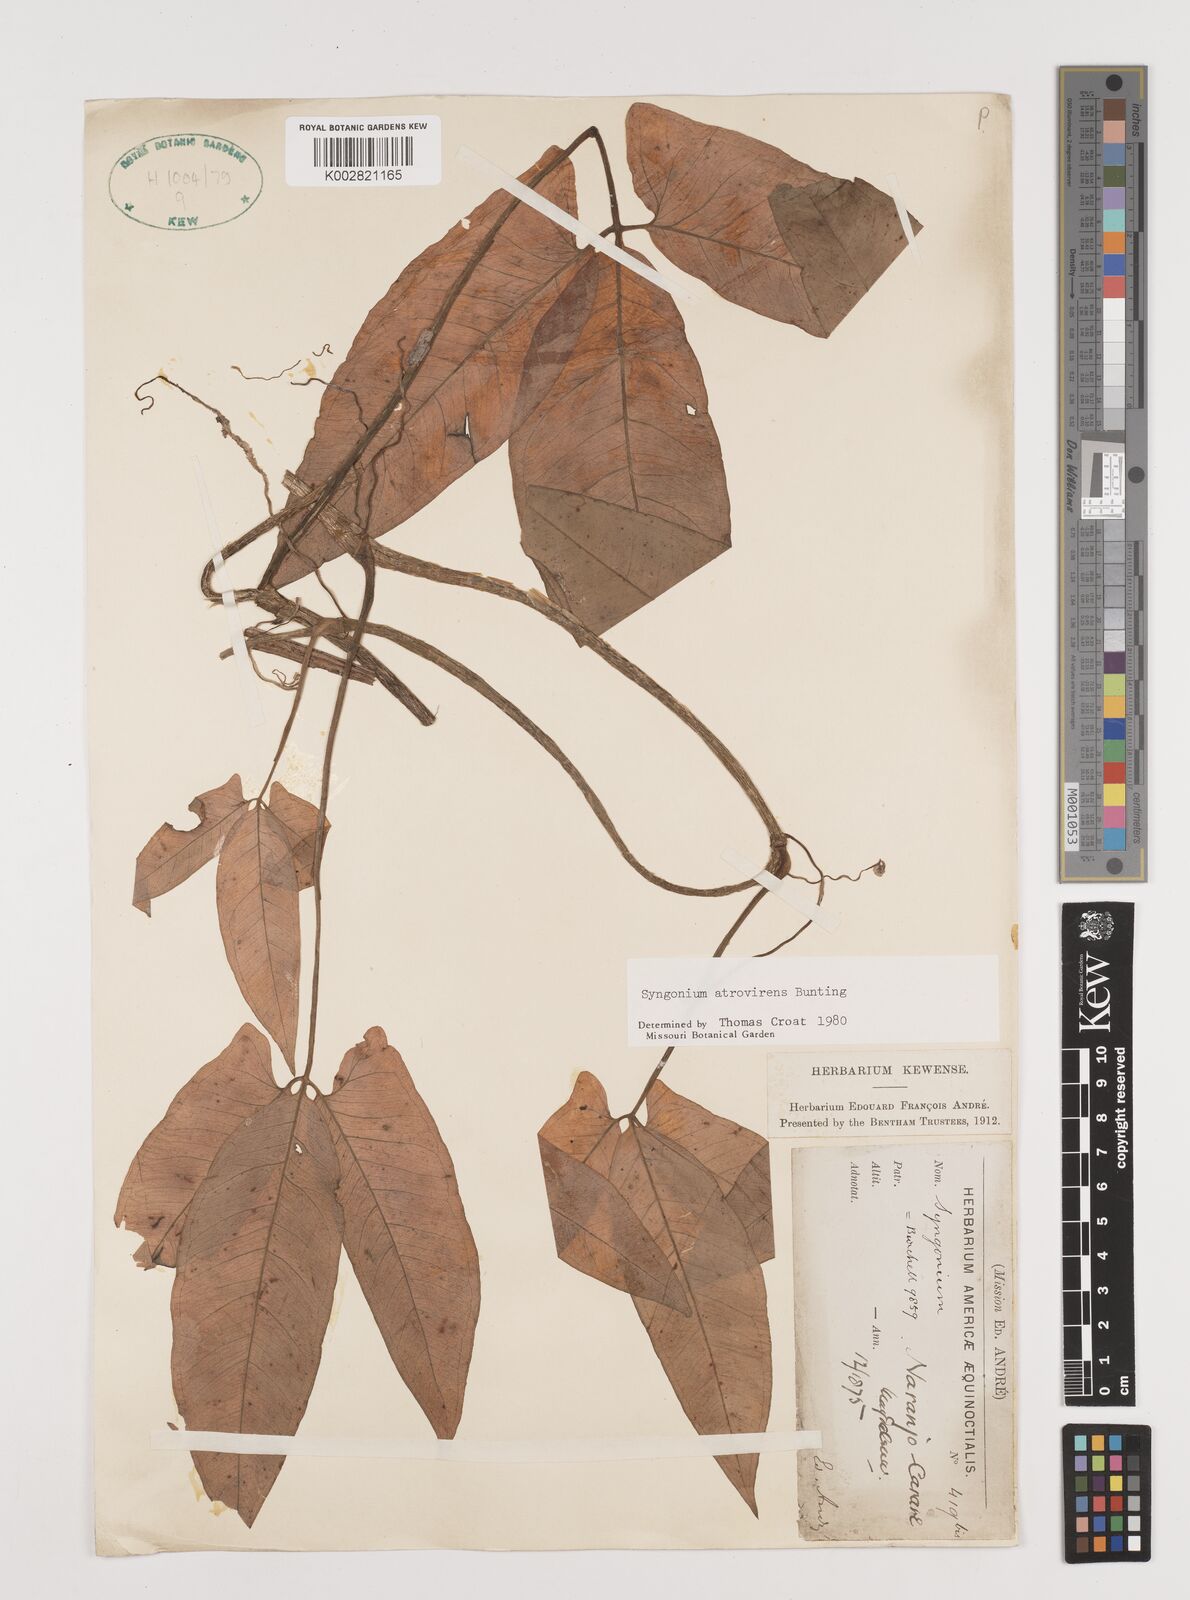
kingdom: Plantae
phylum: Tracheophyta
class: Liliopsida
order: Alismatales
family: Araceae
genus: Syngonium
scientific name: Syngonium yurimaguense
